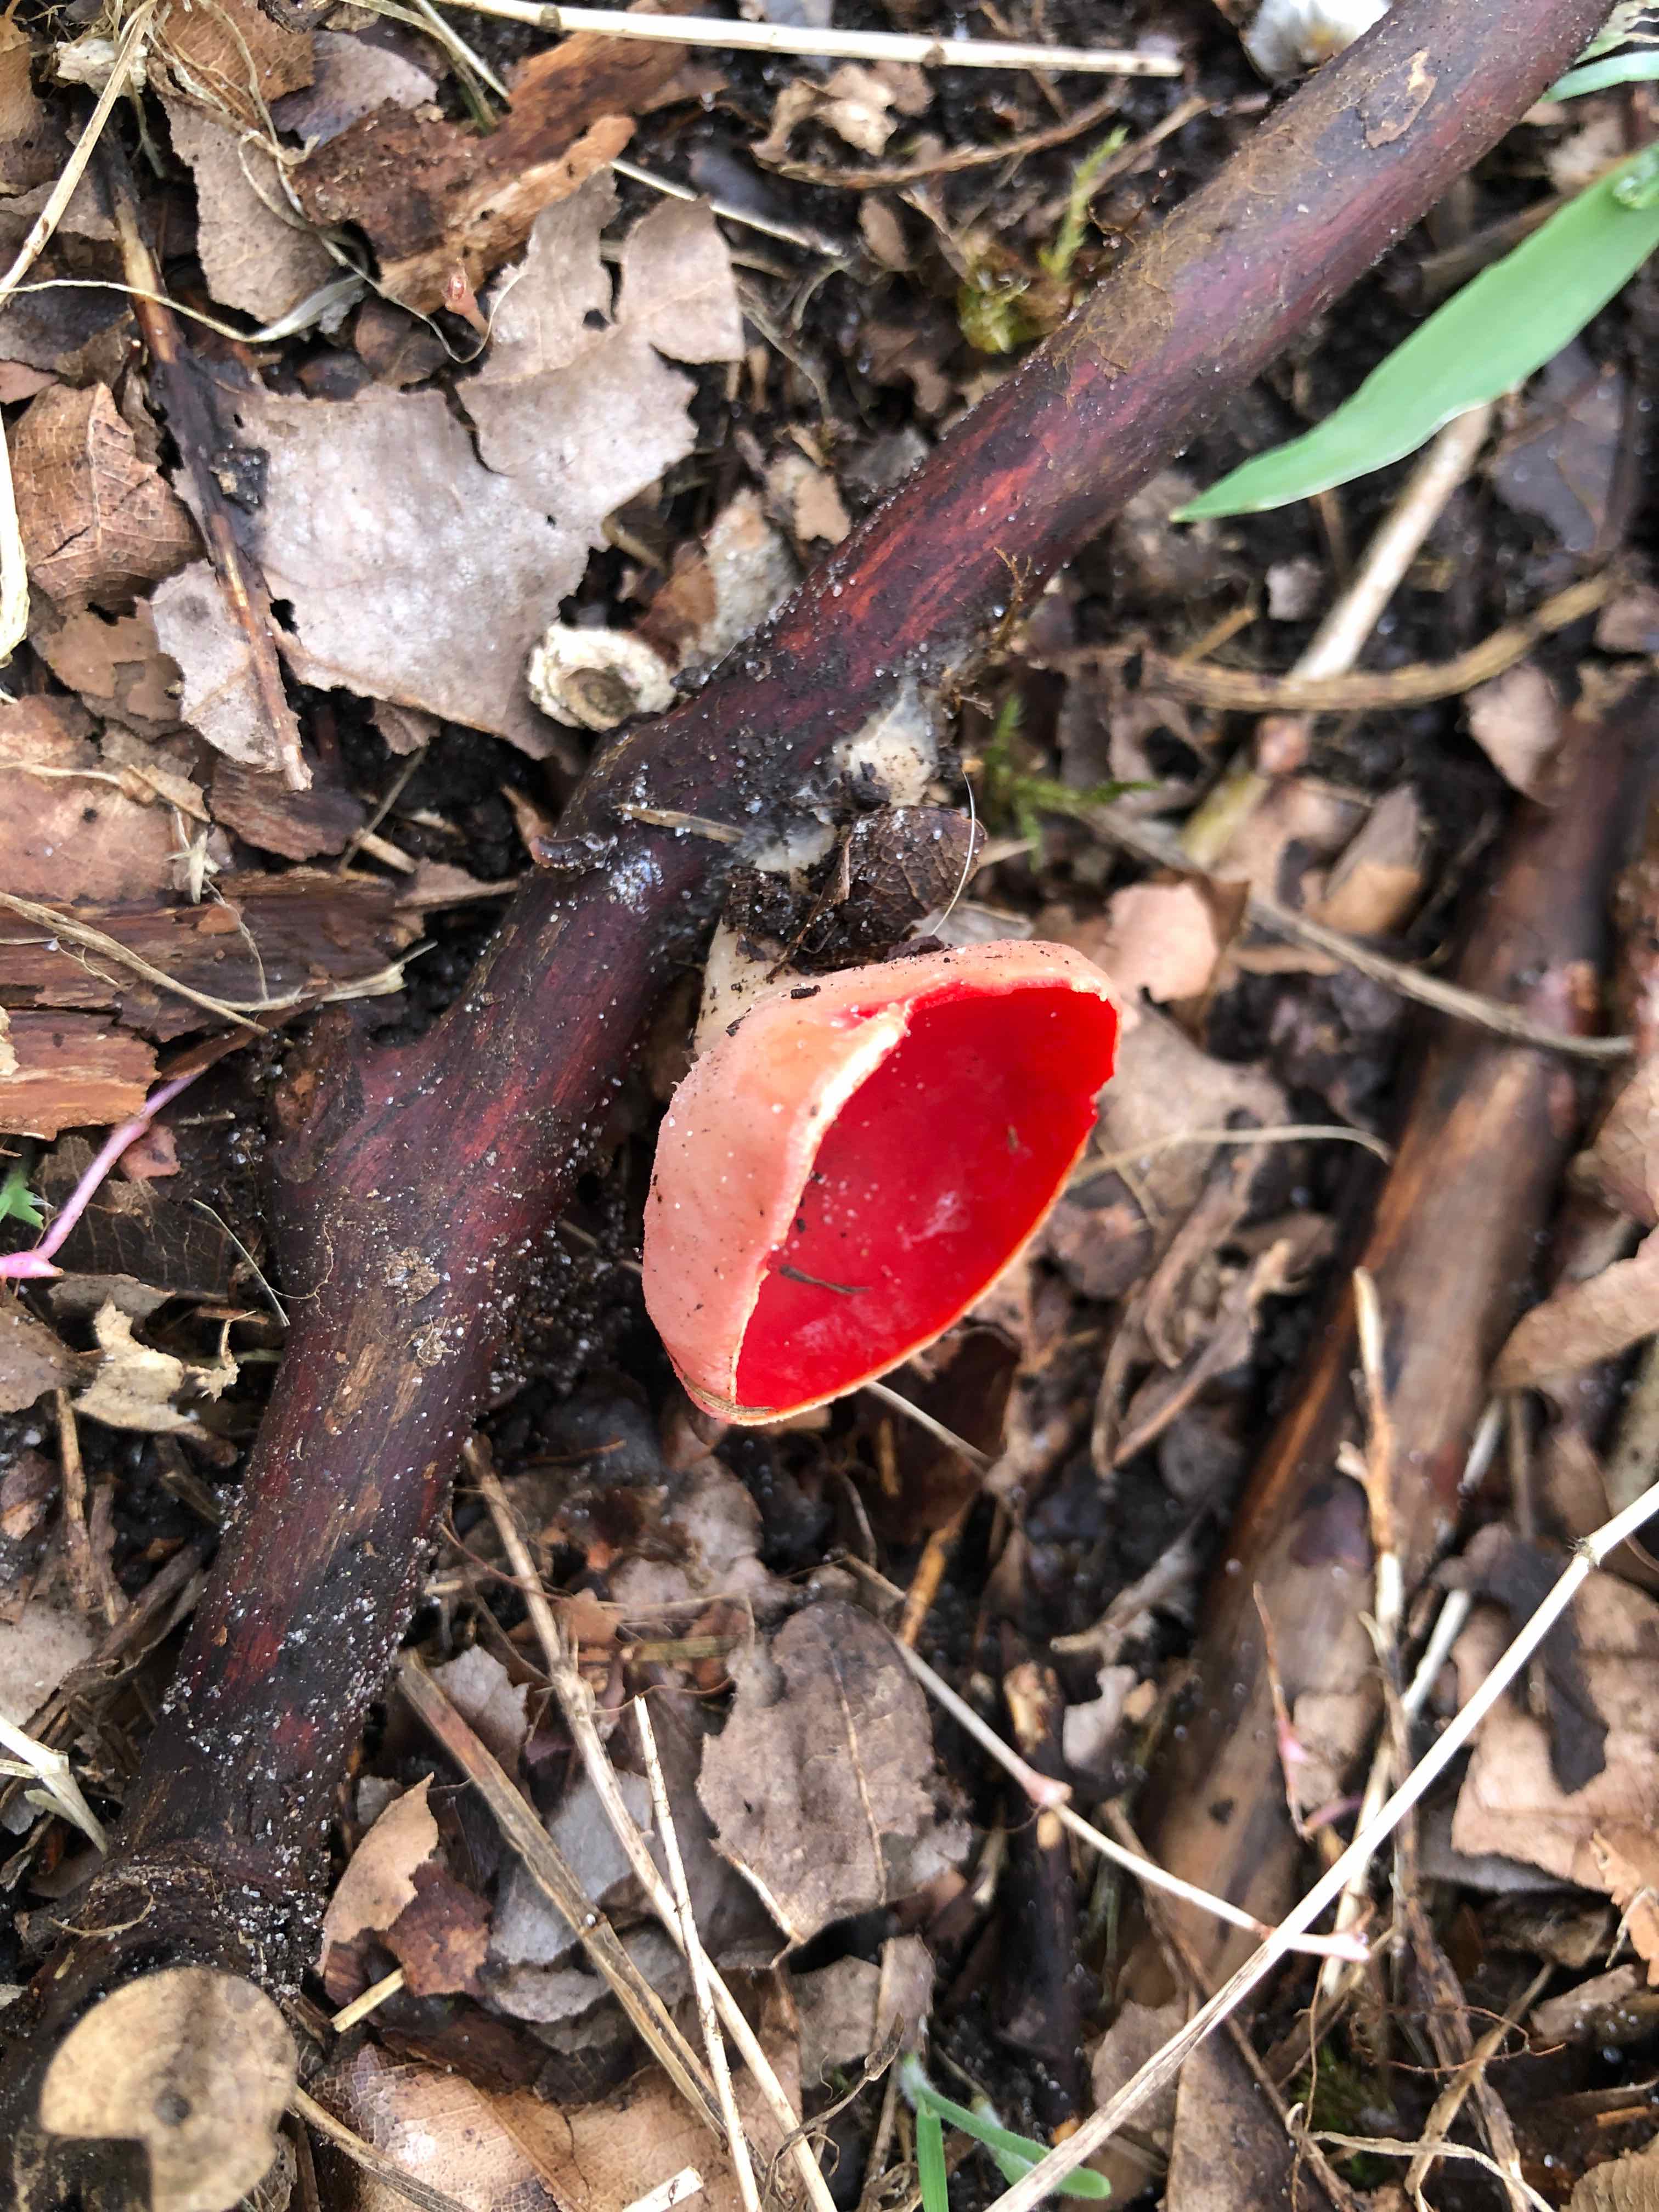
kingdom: Fungi
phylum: Ascomycota
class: Pezizomycetes
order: Pezizales
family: Sarcoscyphaceae
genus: Sarcoscypha
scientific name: Sarcoscypha austriaca
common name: krølhåret pragtbæger
